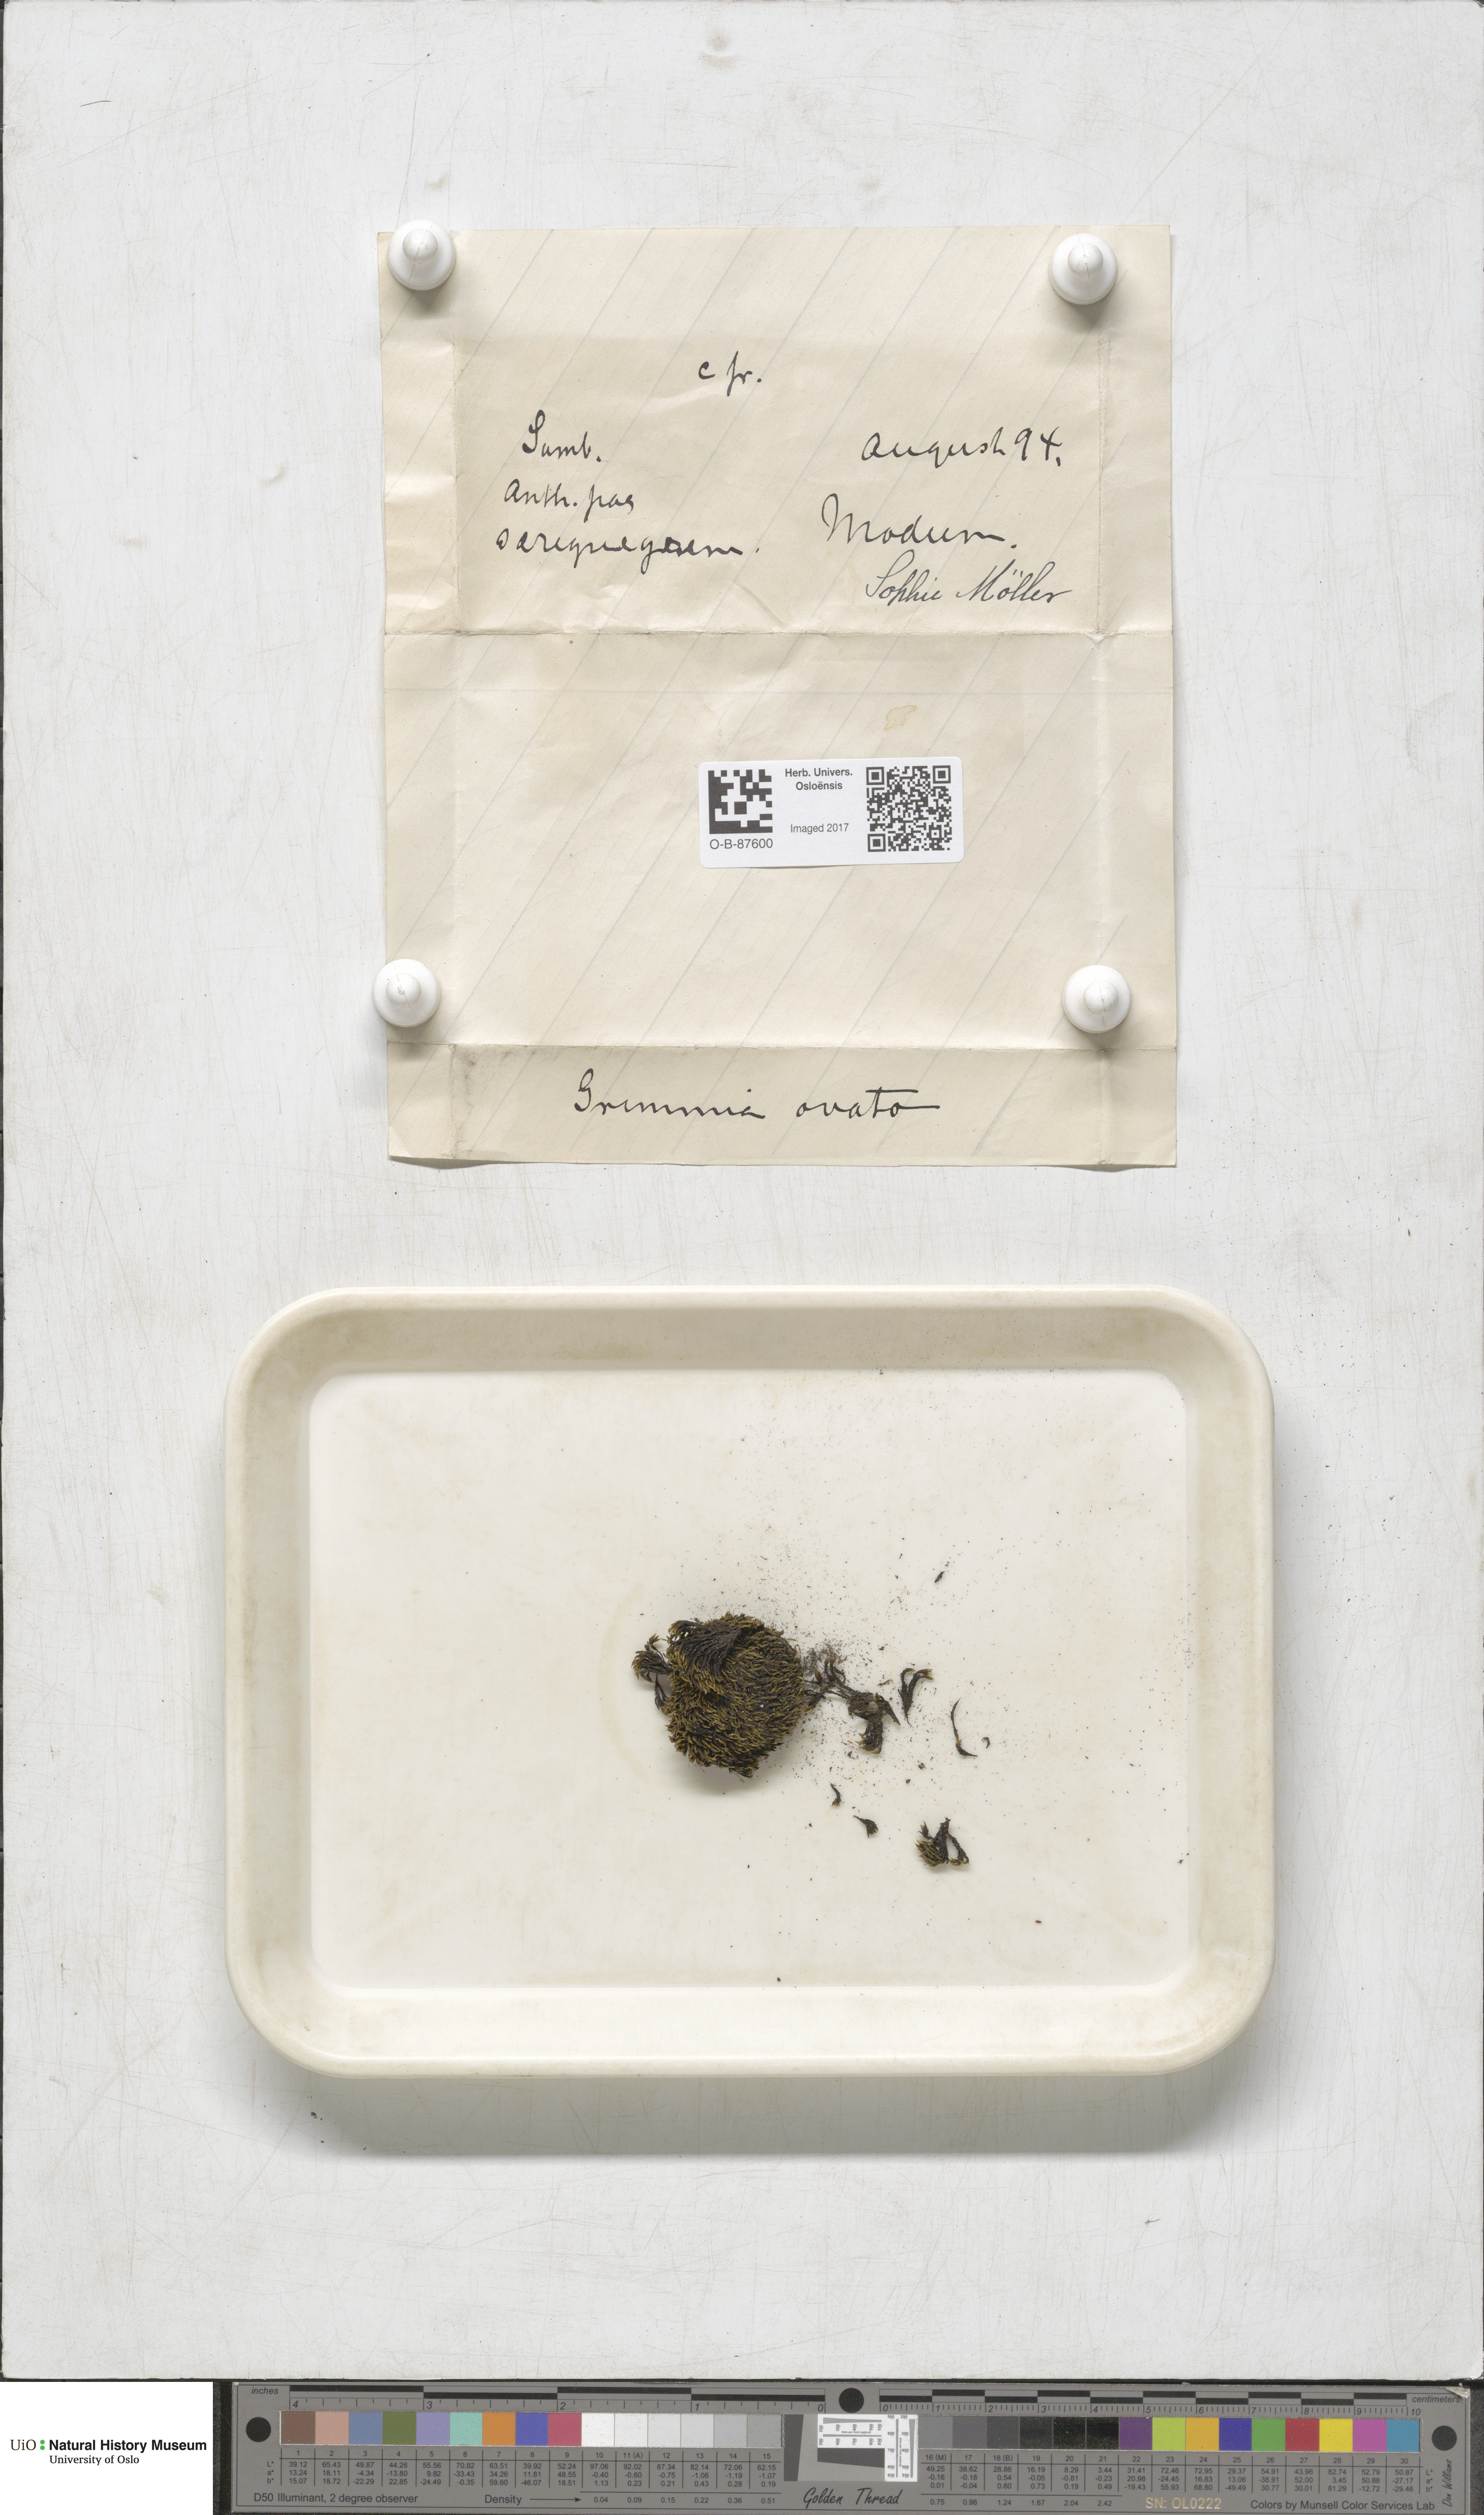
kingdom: Plantae
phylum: Bryophyta
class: Bryopsida
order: Grimmiales
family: Grimmiaceae
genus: Grimmia
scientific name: Grimmia ovalis
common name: Oval grimmia
